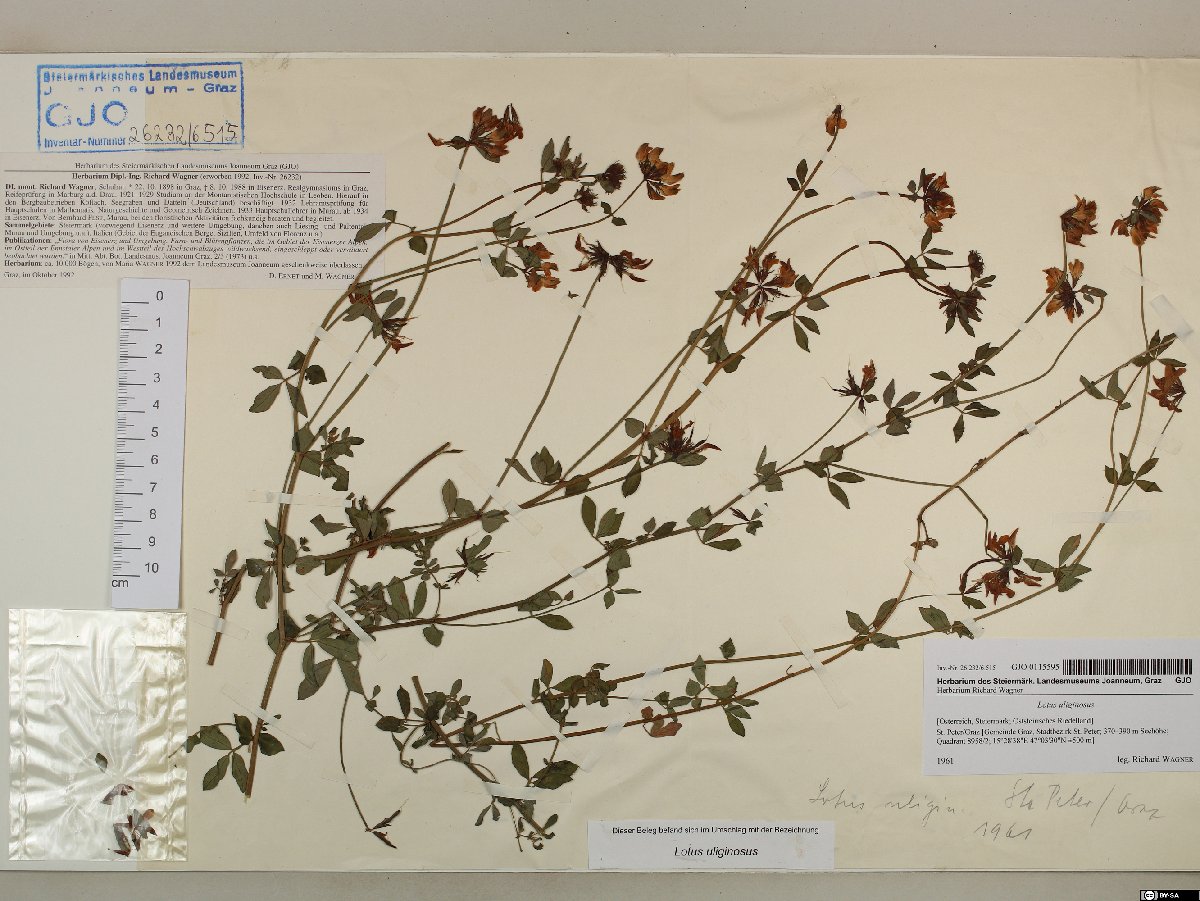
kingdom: Plantae
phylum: Tracheophyta
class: Magnoliopsida
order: Fabales
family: Fabaceae
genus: Lotus
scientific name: Lotus pedunculatus
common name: Greater birdsfoot-trefoil
